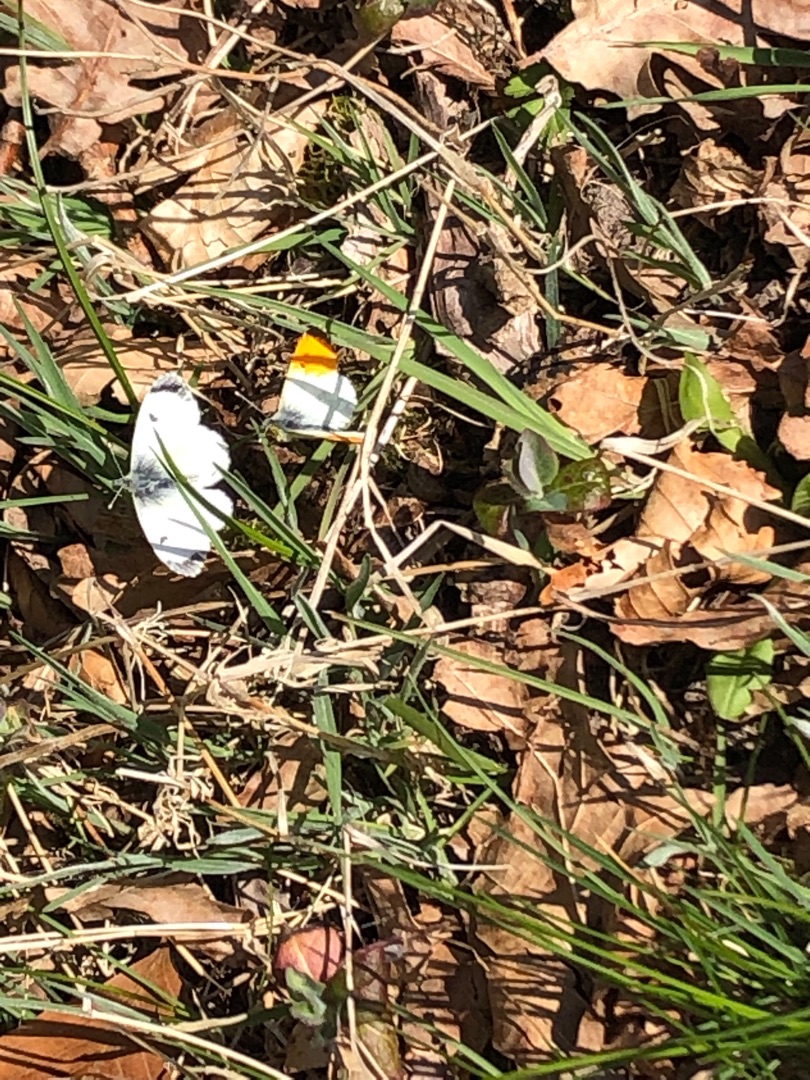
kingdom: Animalia
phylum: Arthropoda
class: Insecta
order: Lepidoptera
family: Pieridae
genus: Anthocharis
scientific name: Anthocharis cardamines
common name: Aurora
